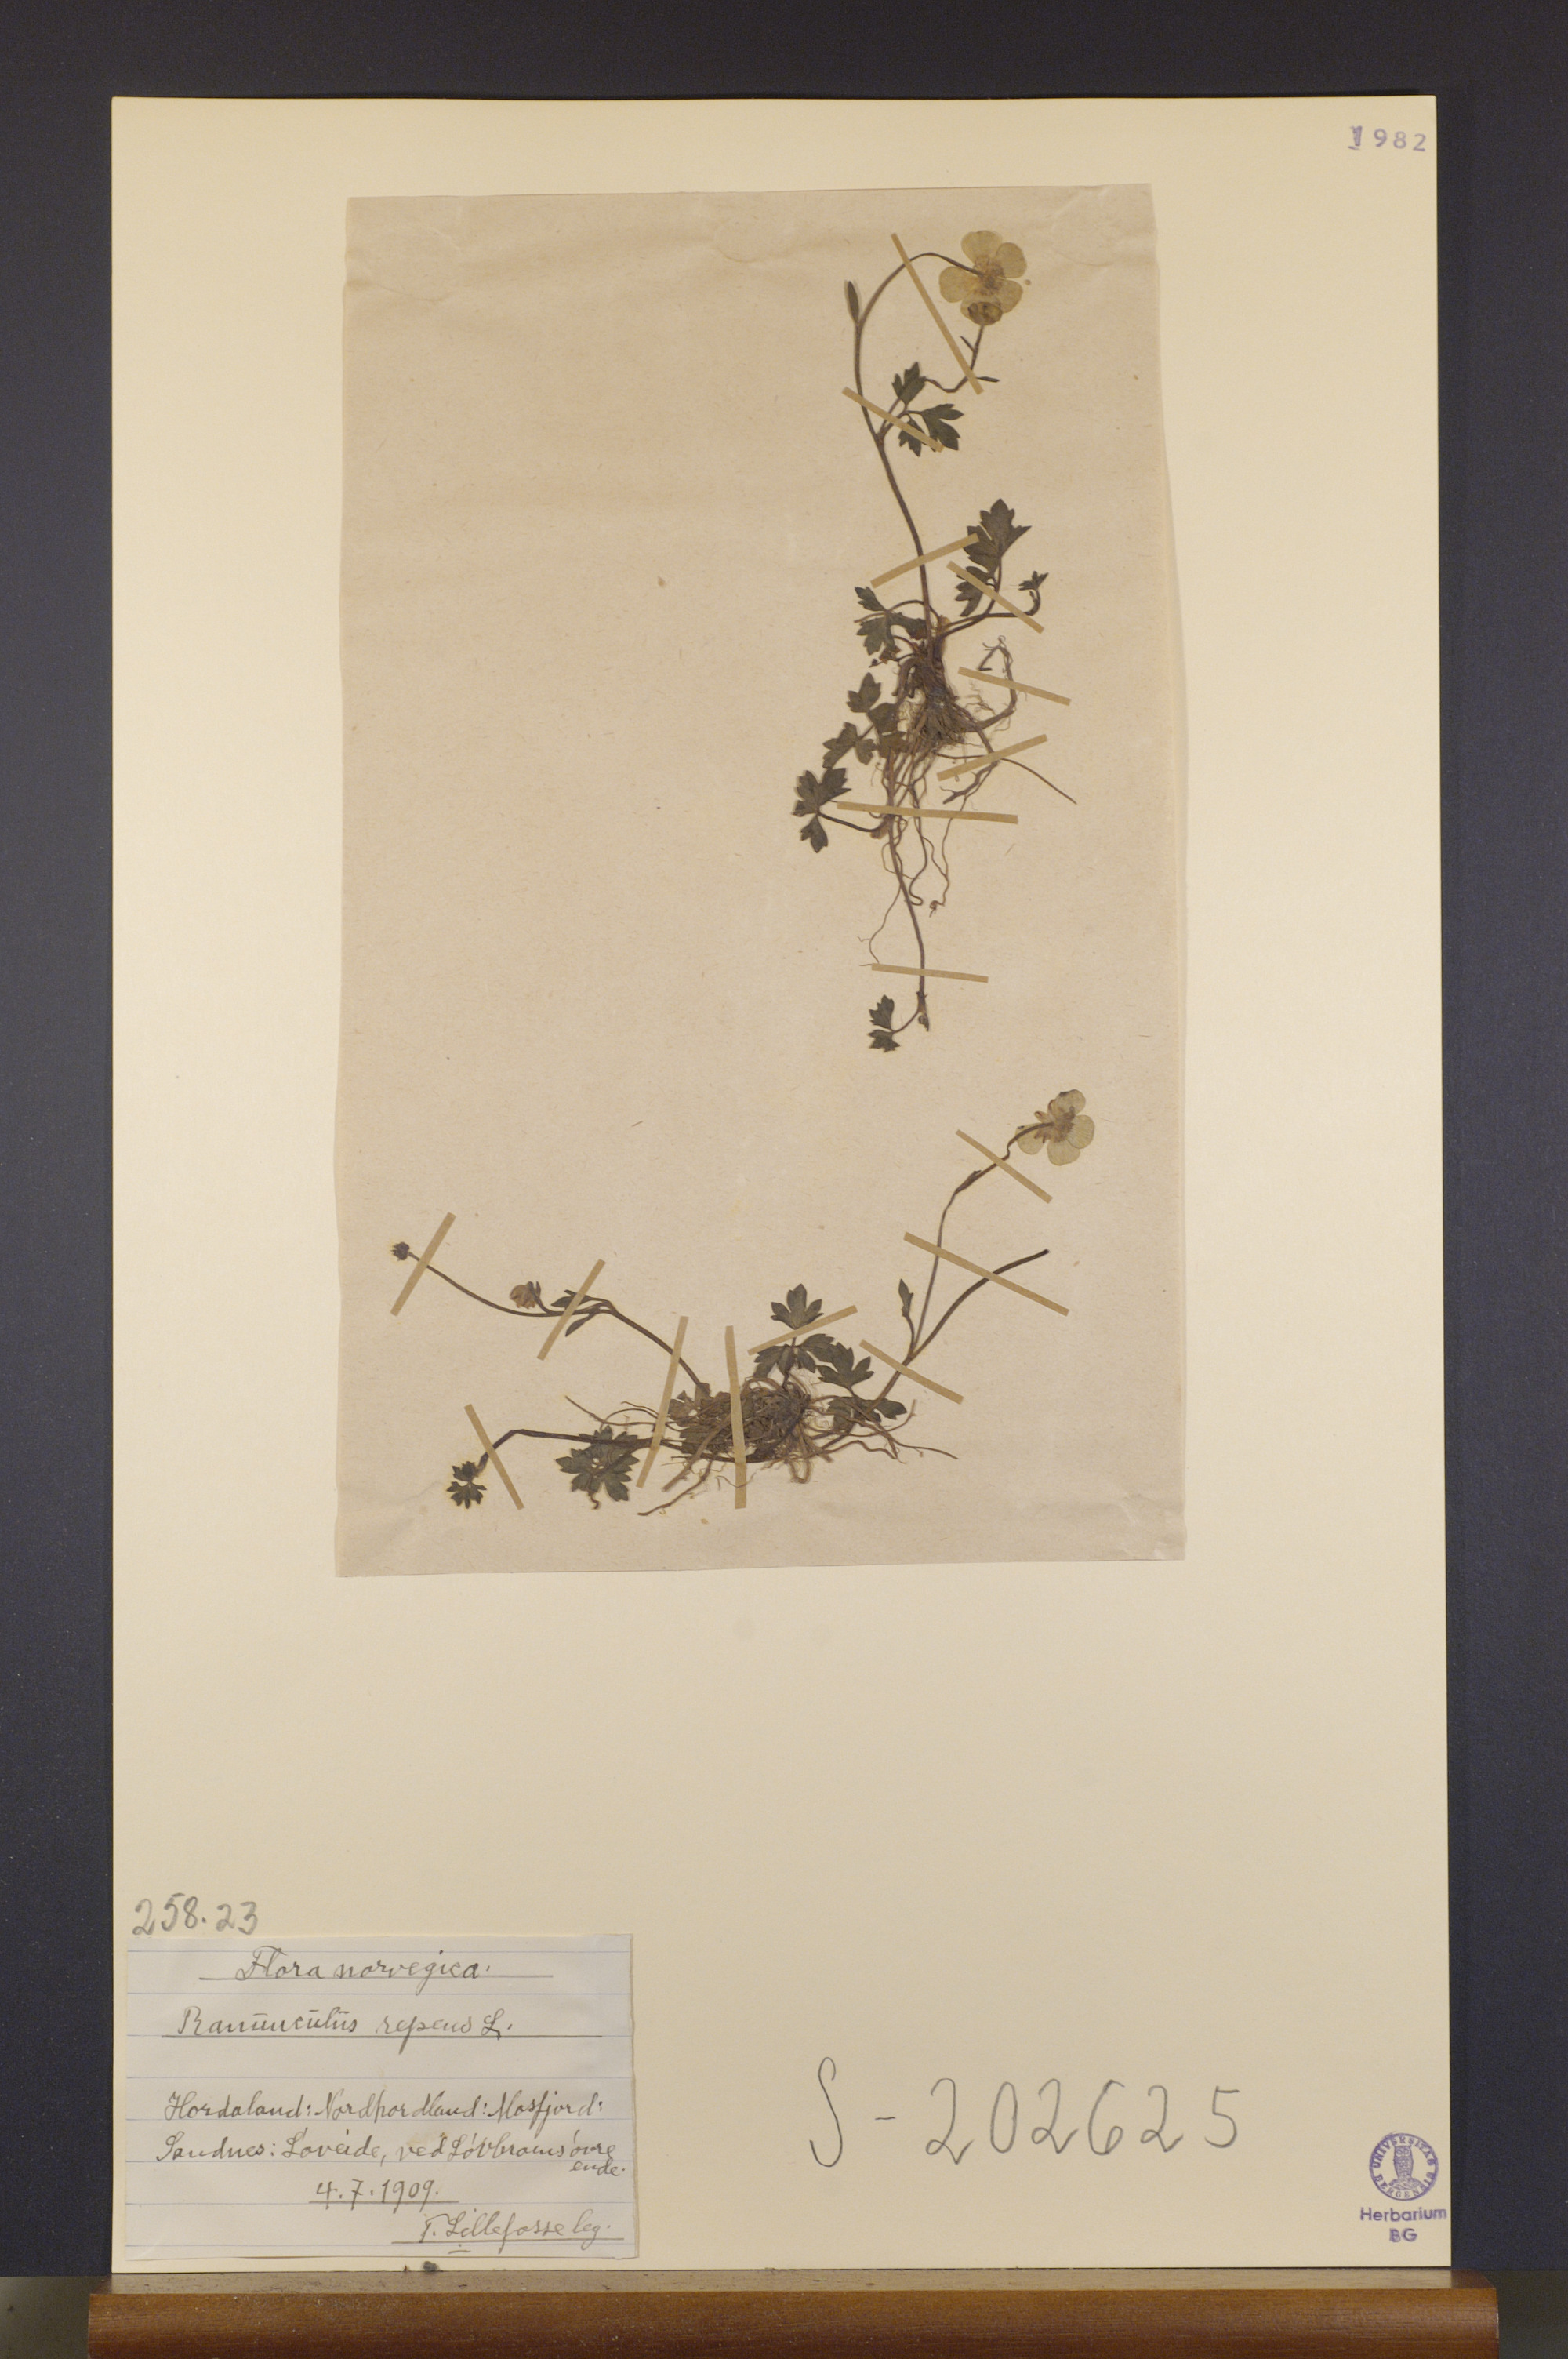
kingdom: Plantae
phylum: Tracheophyta
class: Magnoliopsida
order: Ranunculales
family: Ranunculaceae
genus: Ranunculus
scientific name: Ranunculus repens
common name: Creeping buttercup
